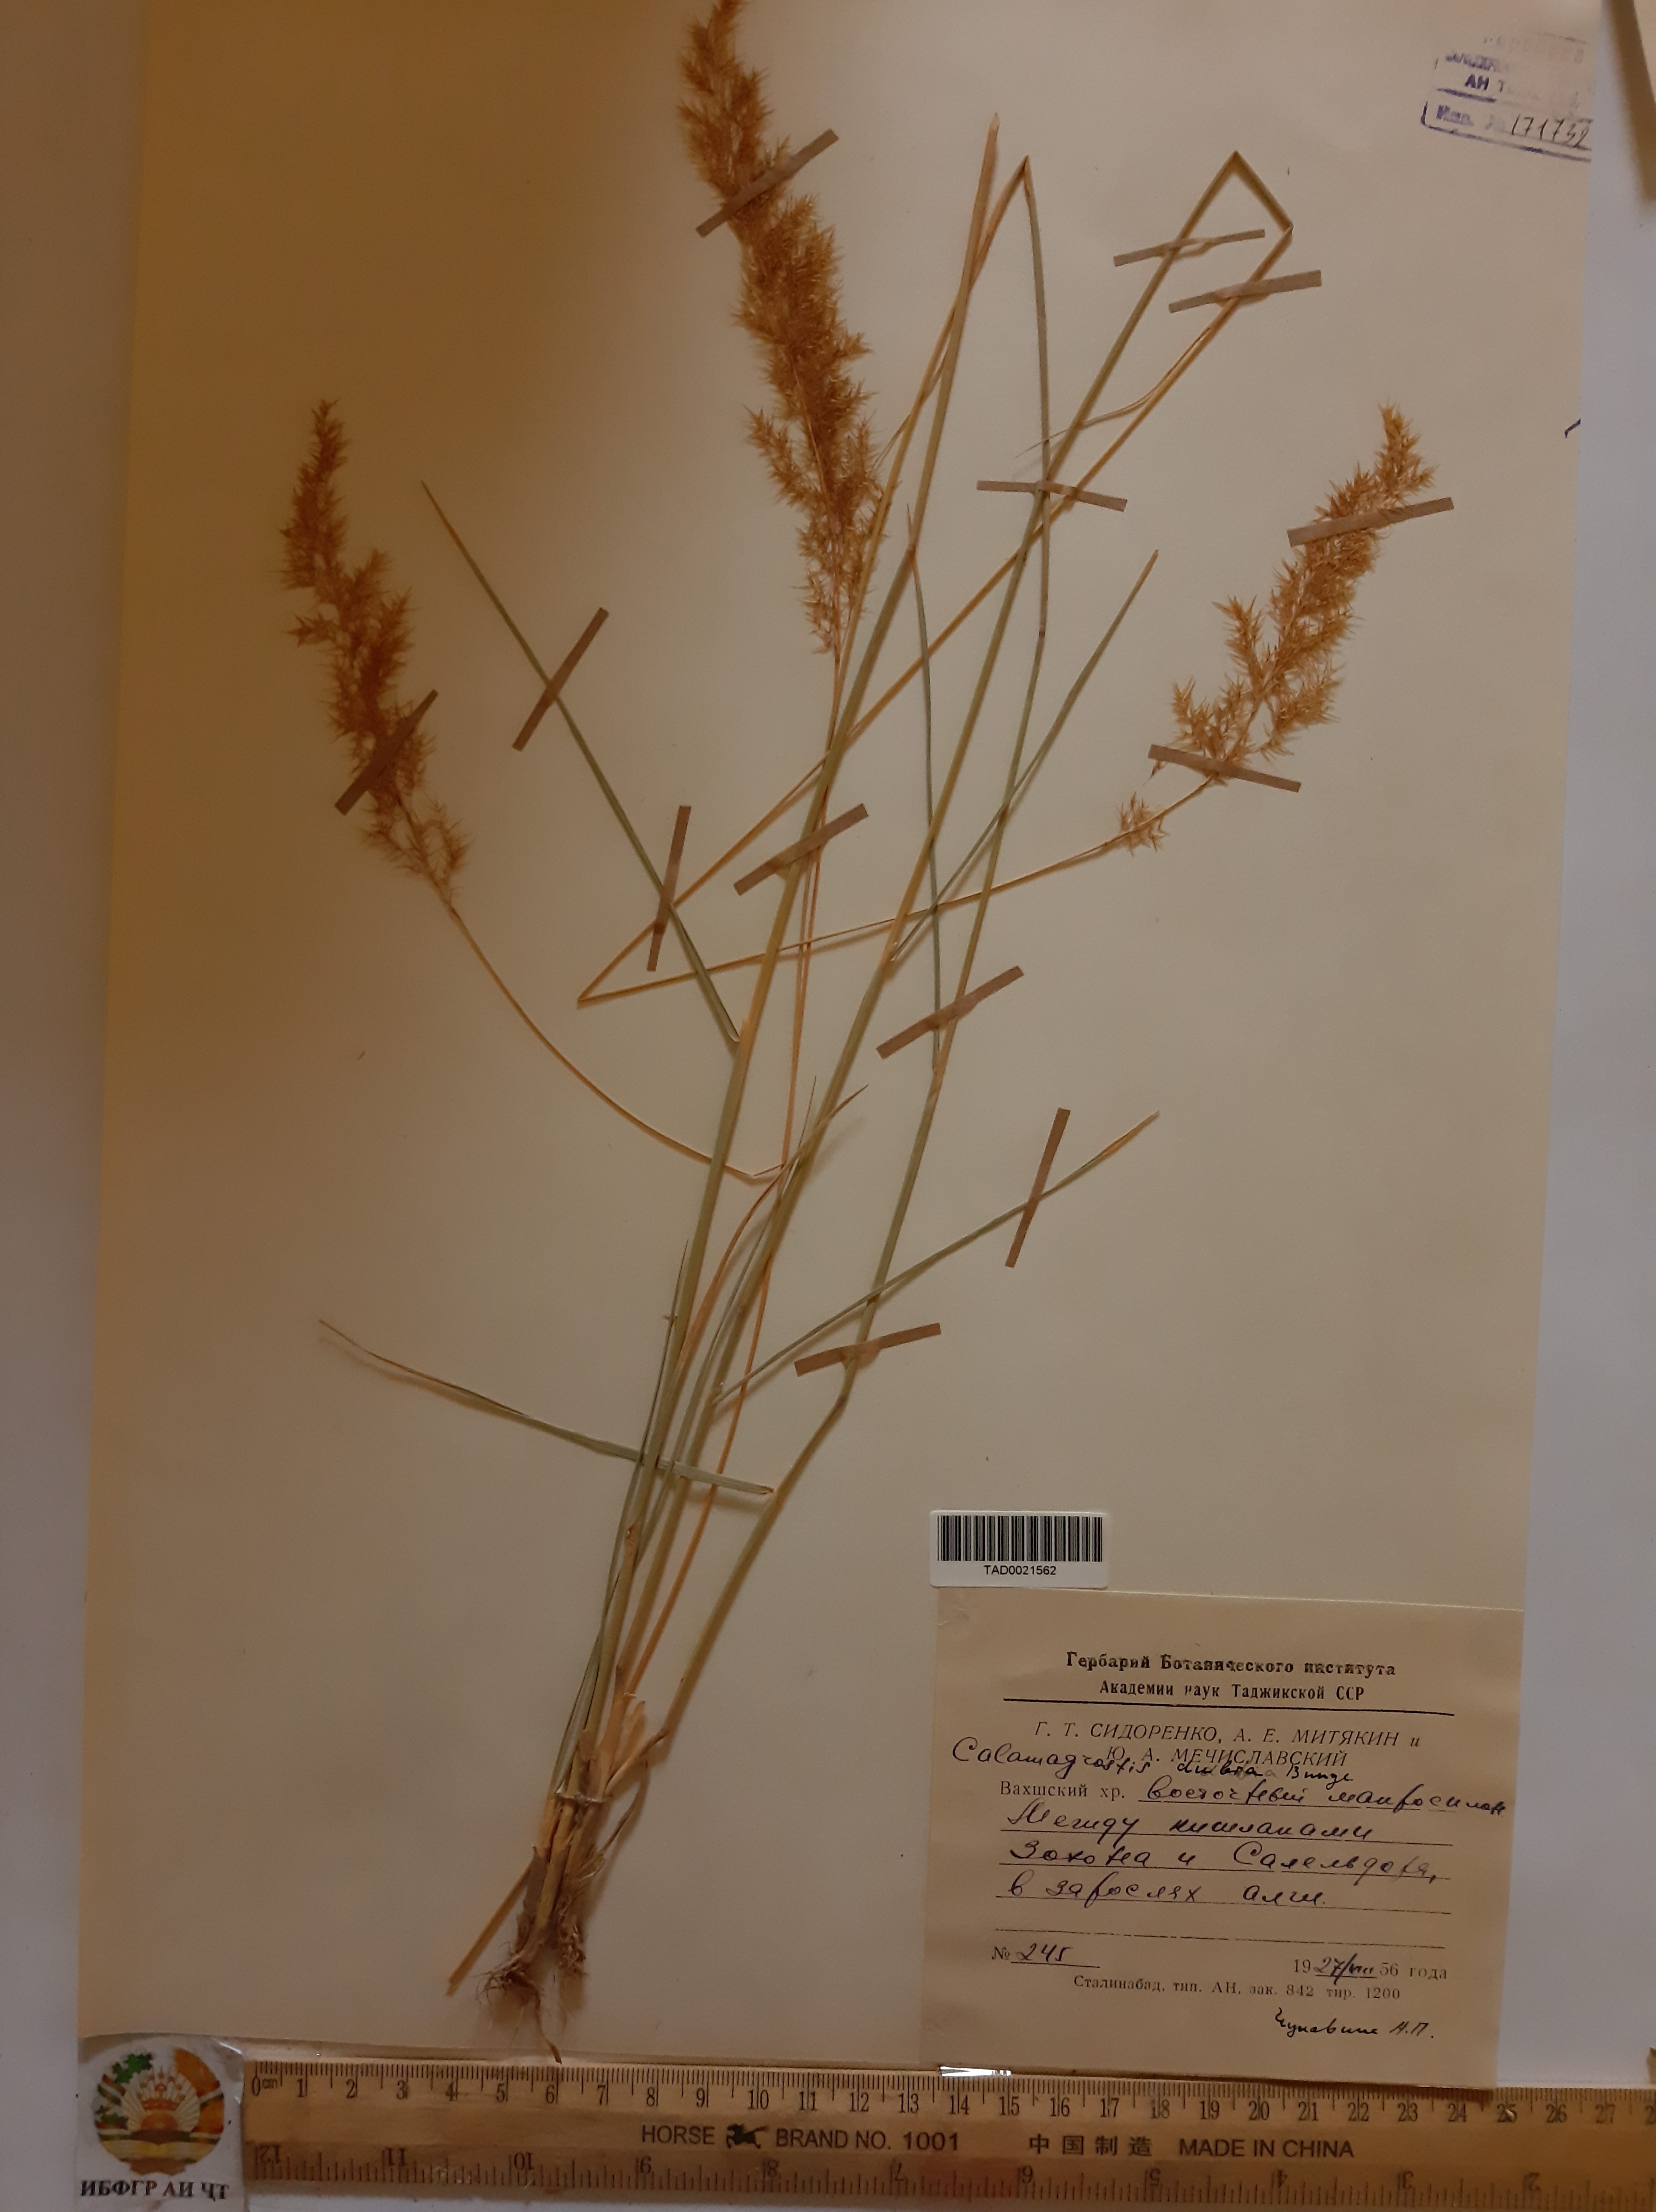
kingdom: Plantae
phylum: Tracheophyta
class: Liliopsida
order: Poales
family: Poaceae
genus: Calamagrostis
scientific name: Calamagrostis pseudophragmites
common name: Coastal small-reed
